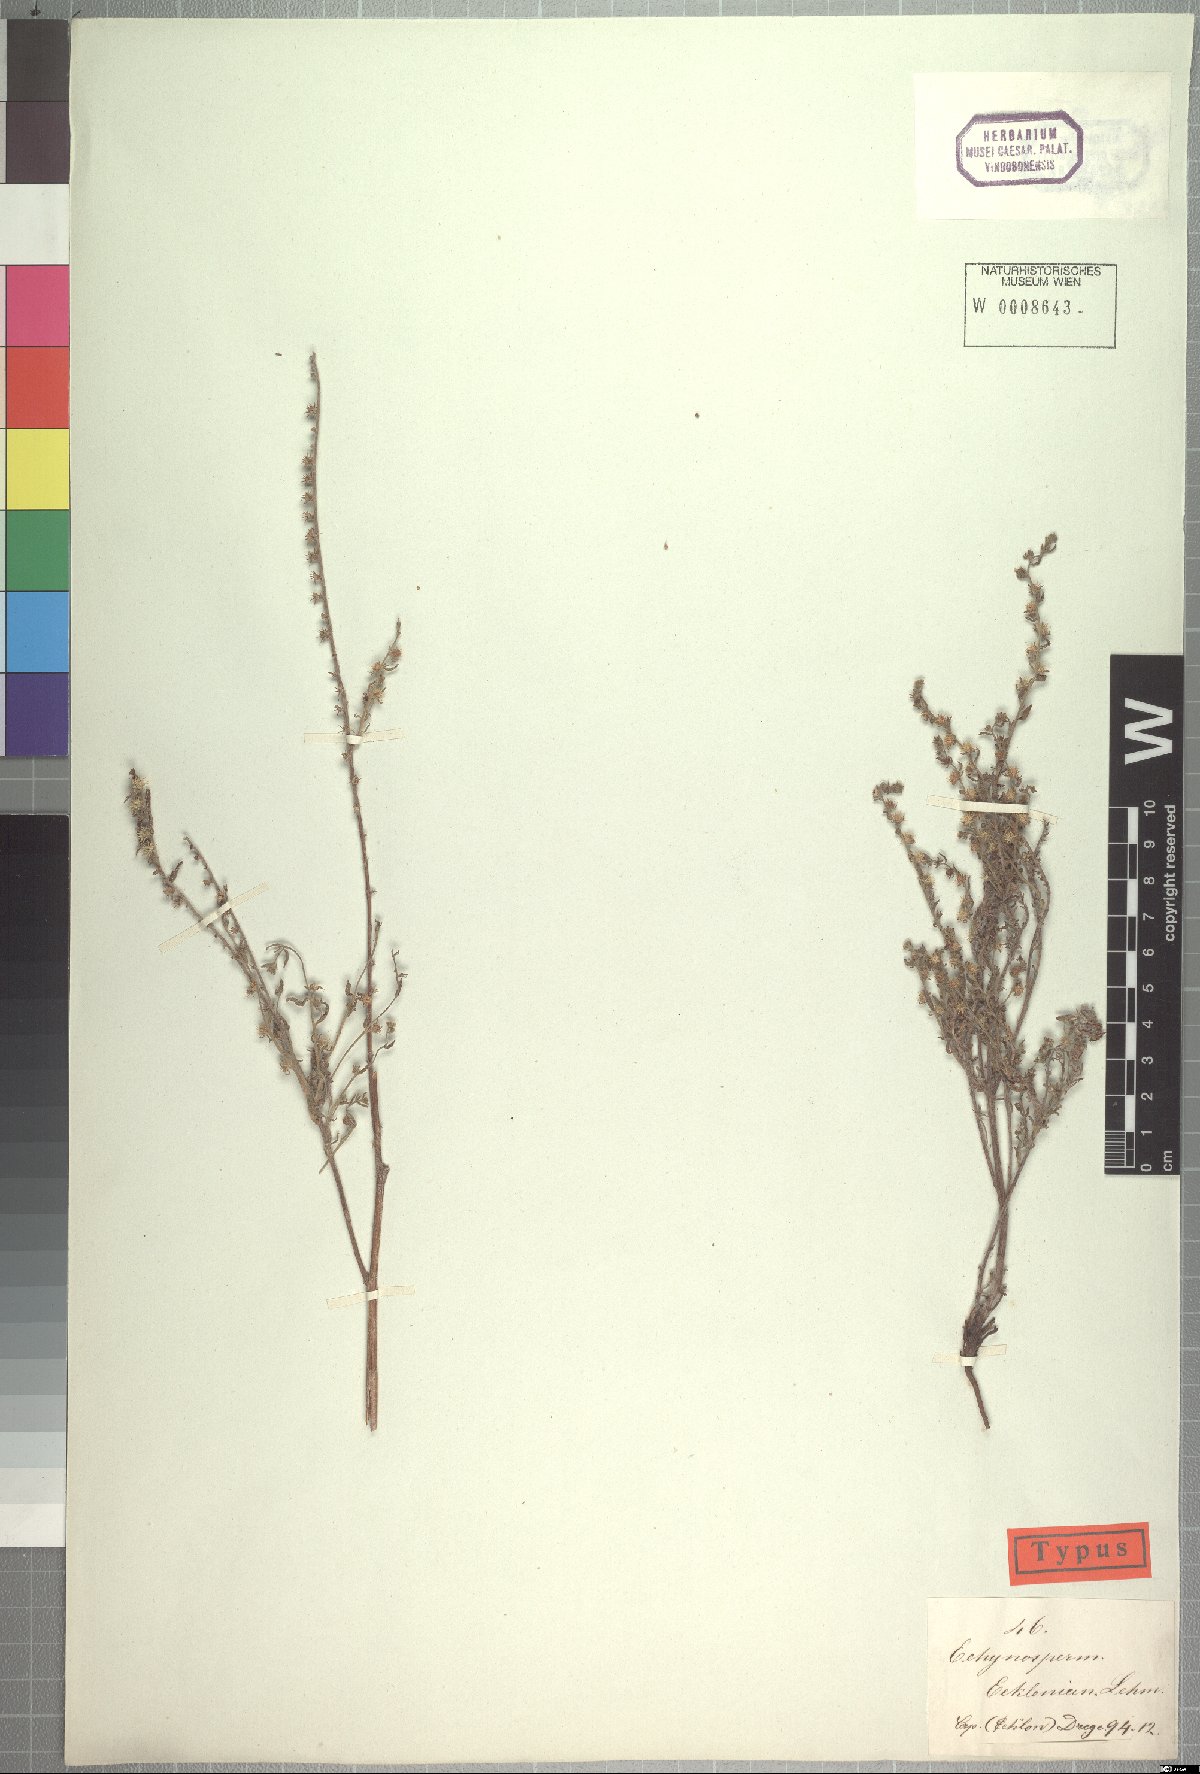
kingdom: Plantae
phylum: Tracheophyta
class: Magnoliopsida
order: Boraginales
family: Boraginaceae
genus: Lappula
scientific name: Lappula cynoglossoides
